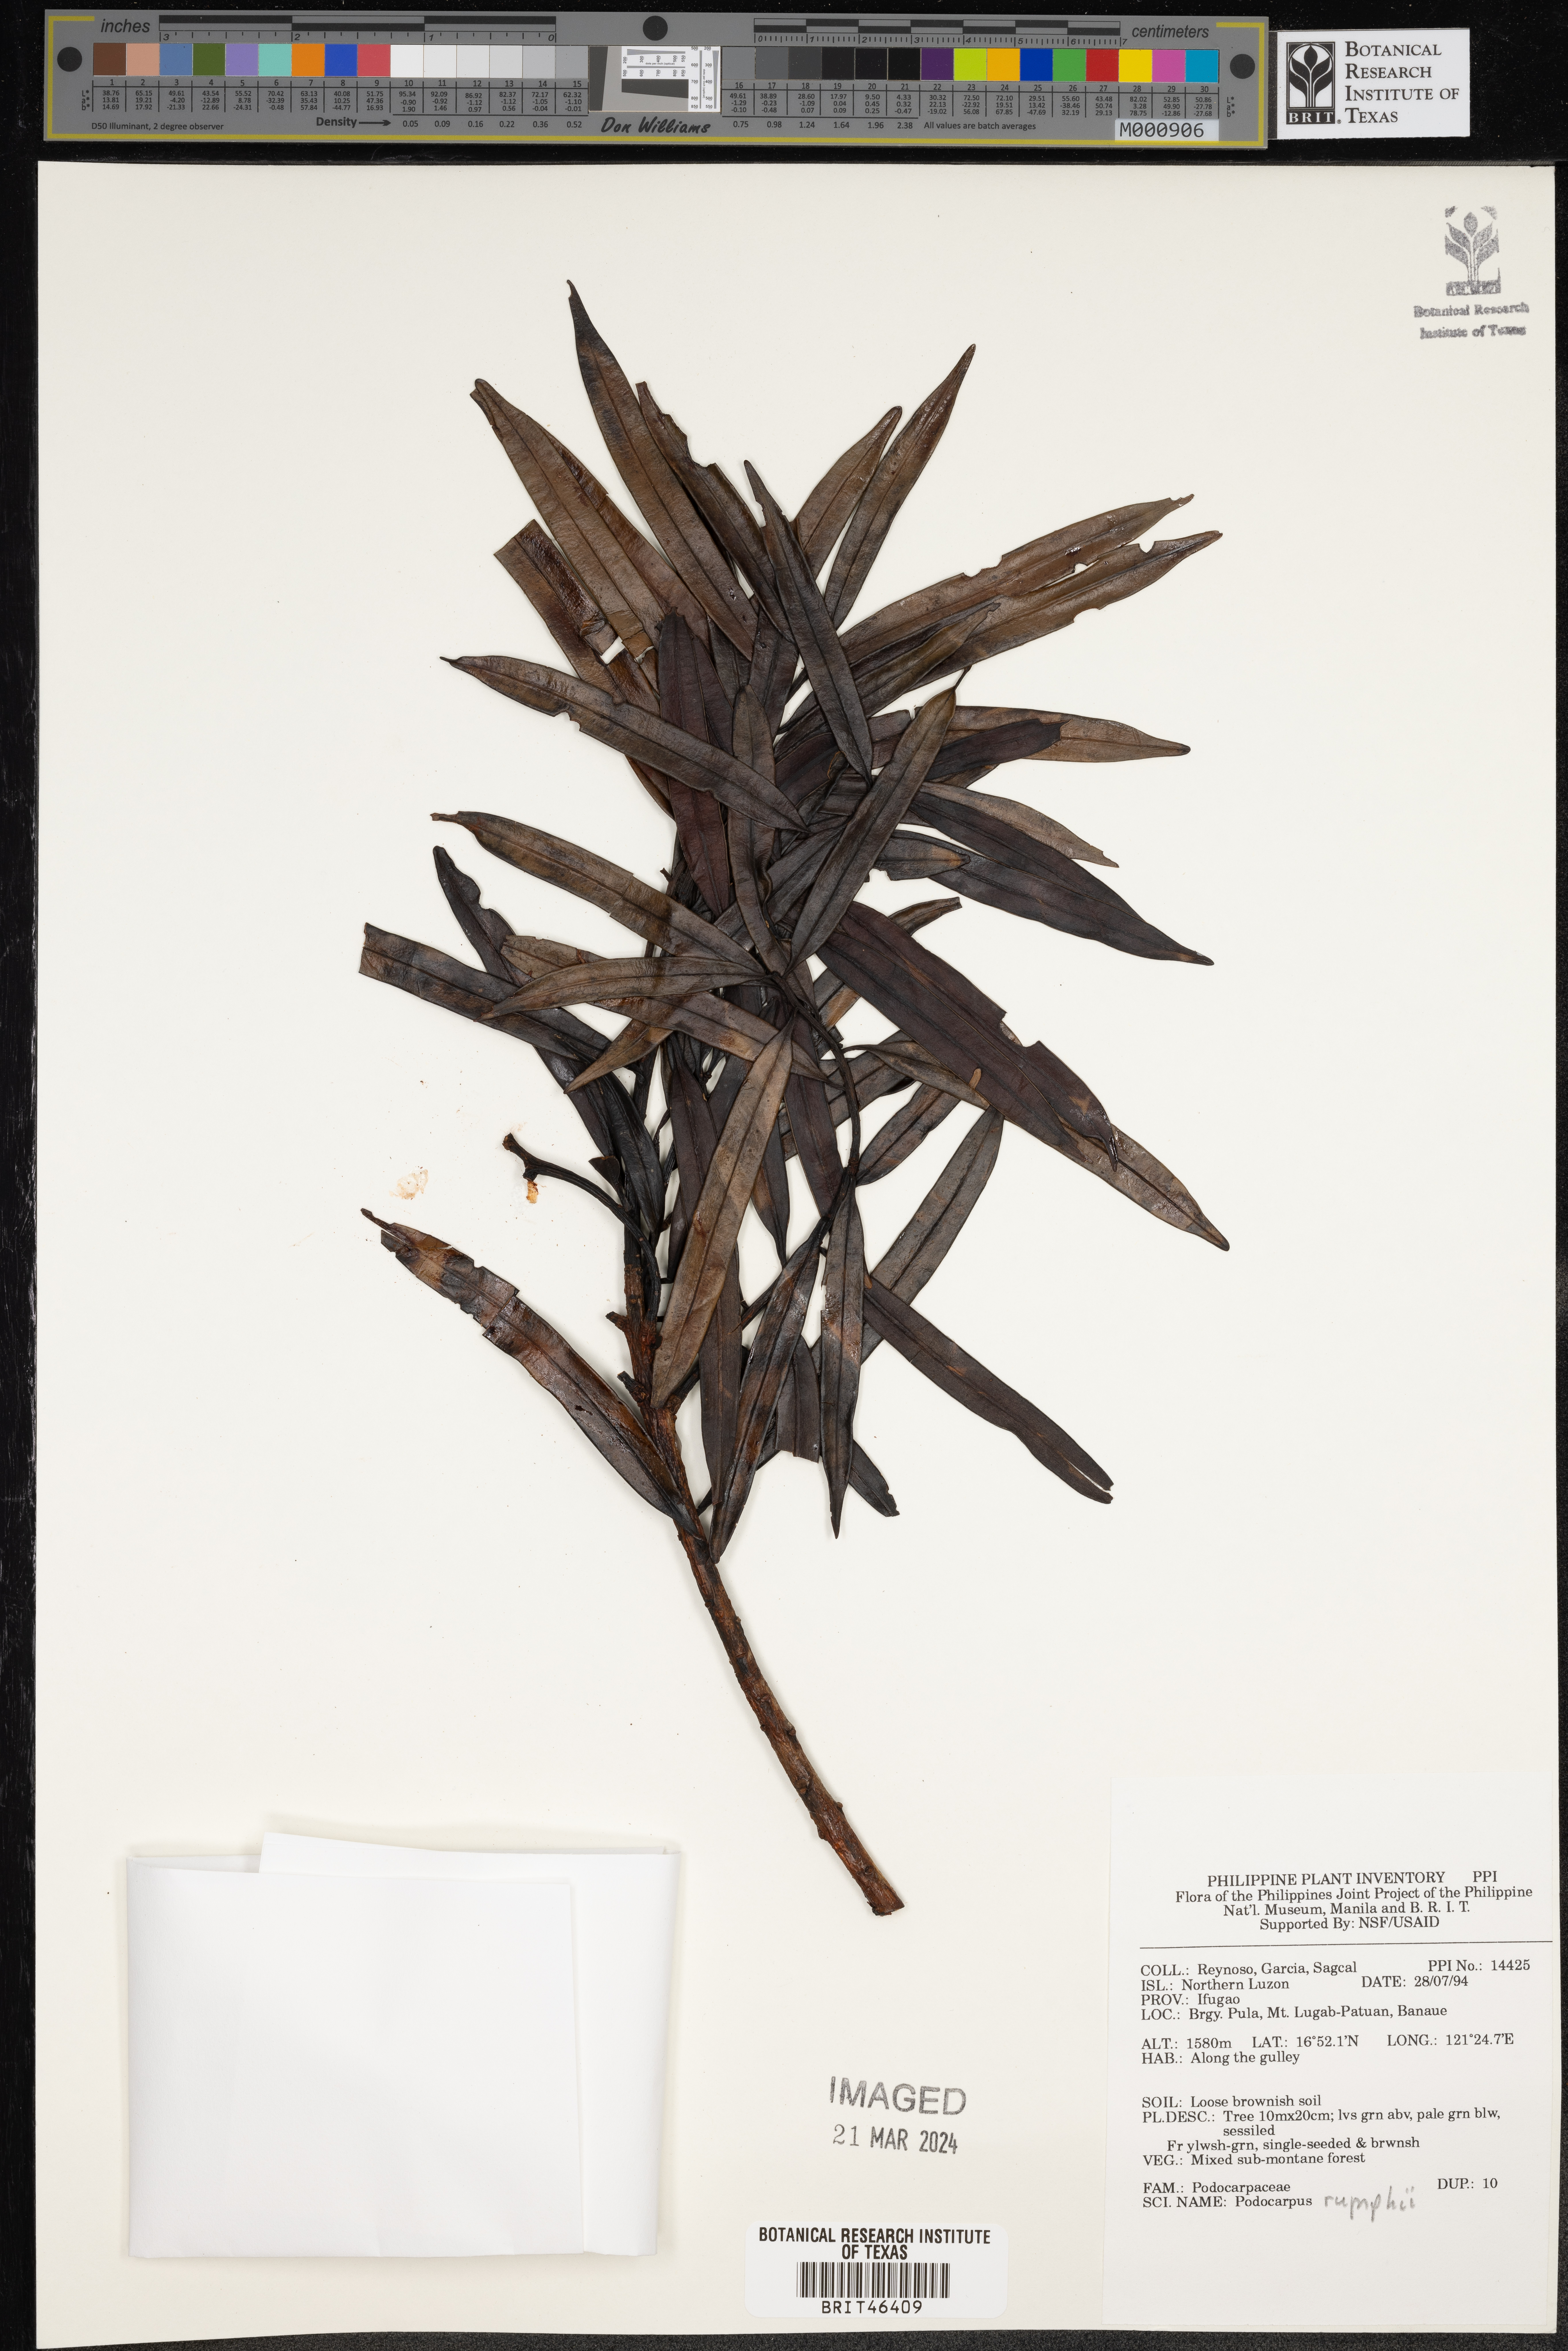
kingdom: Plantae
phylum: Tracheophyta
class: Pinopsida
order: Pinales
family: Podocarpaceae
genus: Podocarpus
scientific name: Podocarpus rumphii
